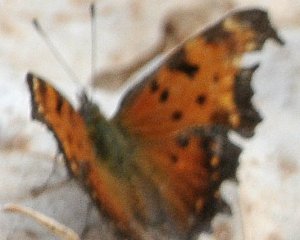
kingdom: Animalia
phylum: Arthropoda
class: Insecta
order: Lepidoptera
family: Nymphalidae
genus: Polygonia
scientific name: Polygonia progne
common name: Gray Comma
